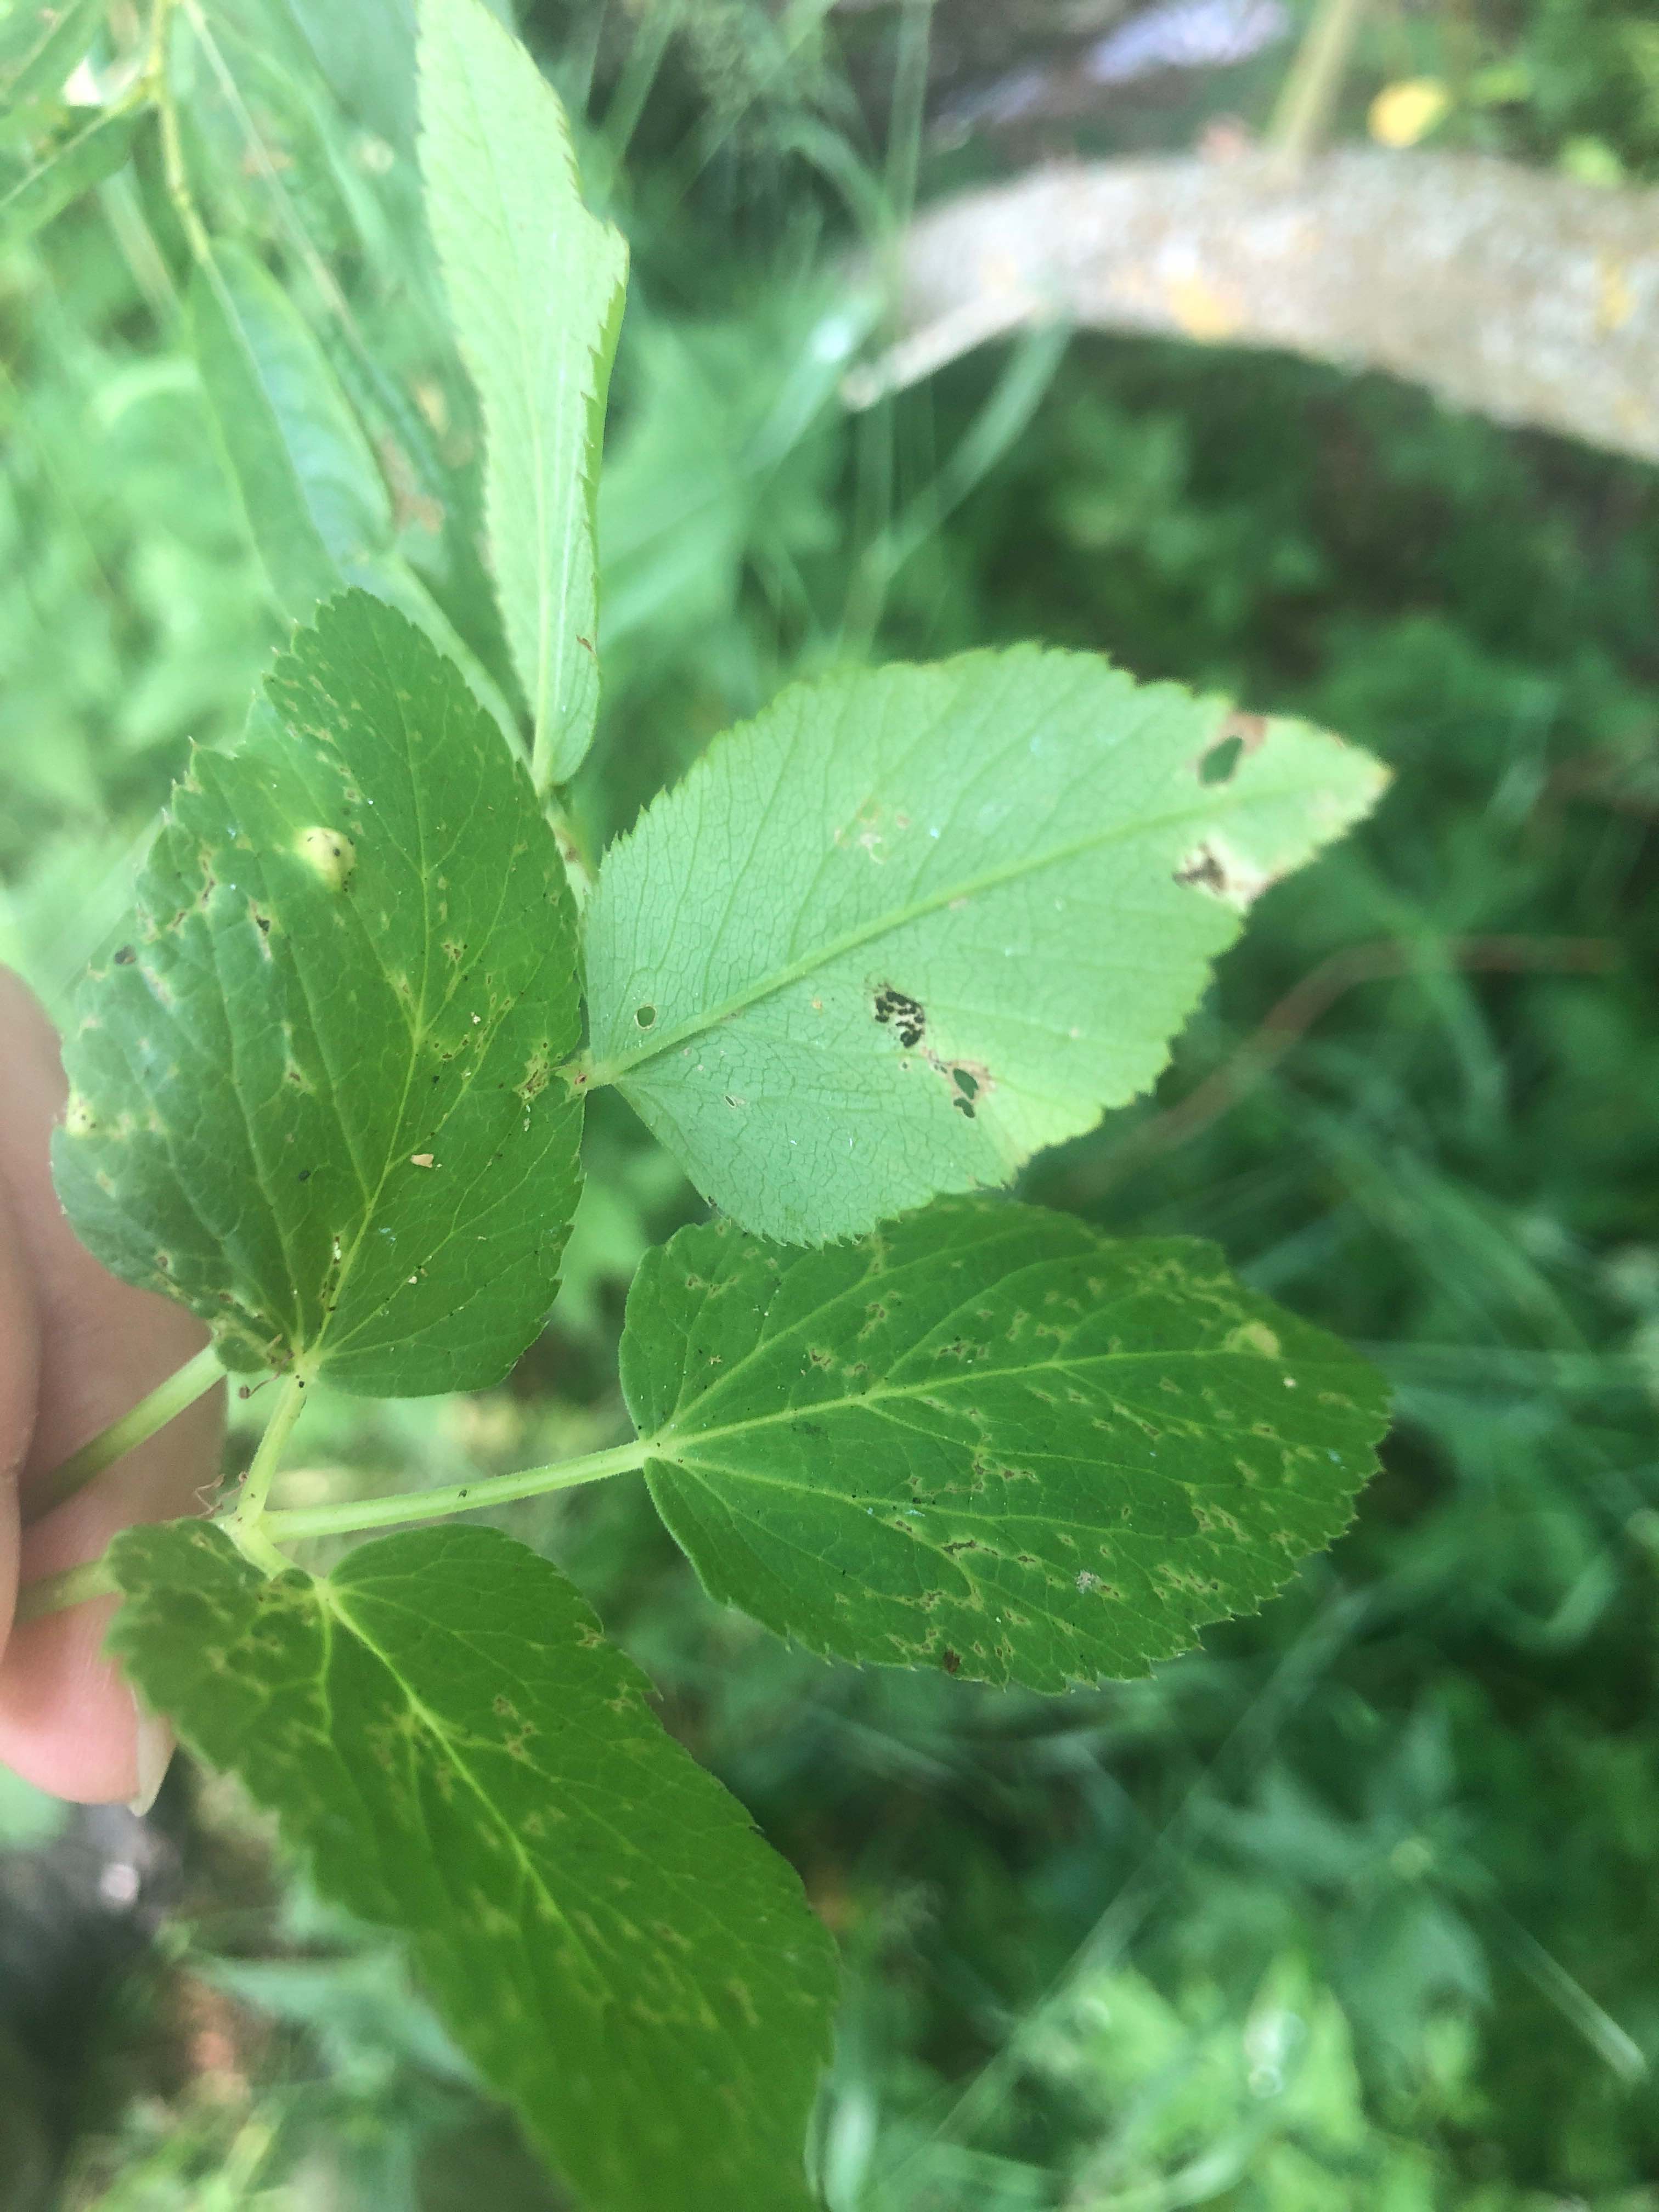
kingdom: Fungi
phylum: Basidiomycota
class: Pucciniomycetes
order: Pucciniales
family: Pucciniaceae
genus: Puccinia
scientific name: Puccinia
